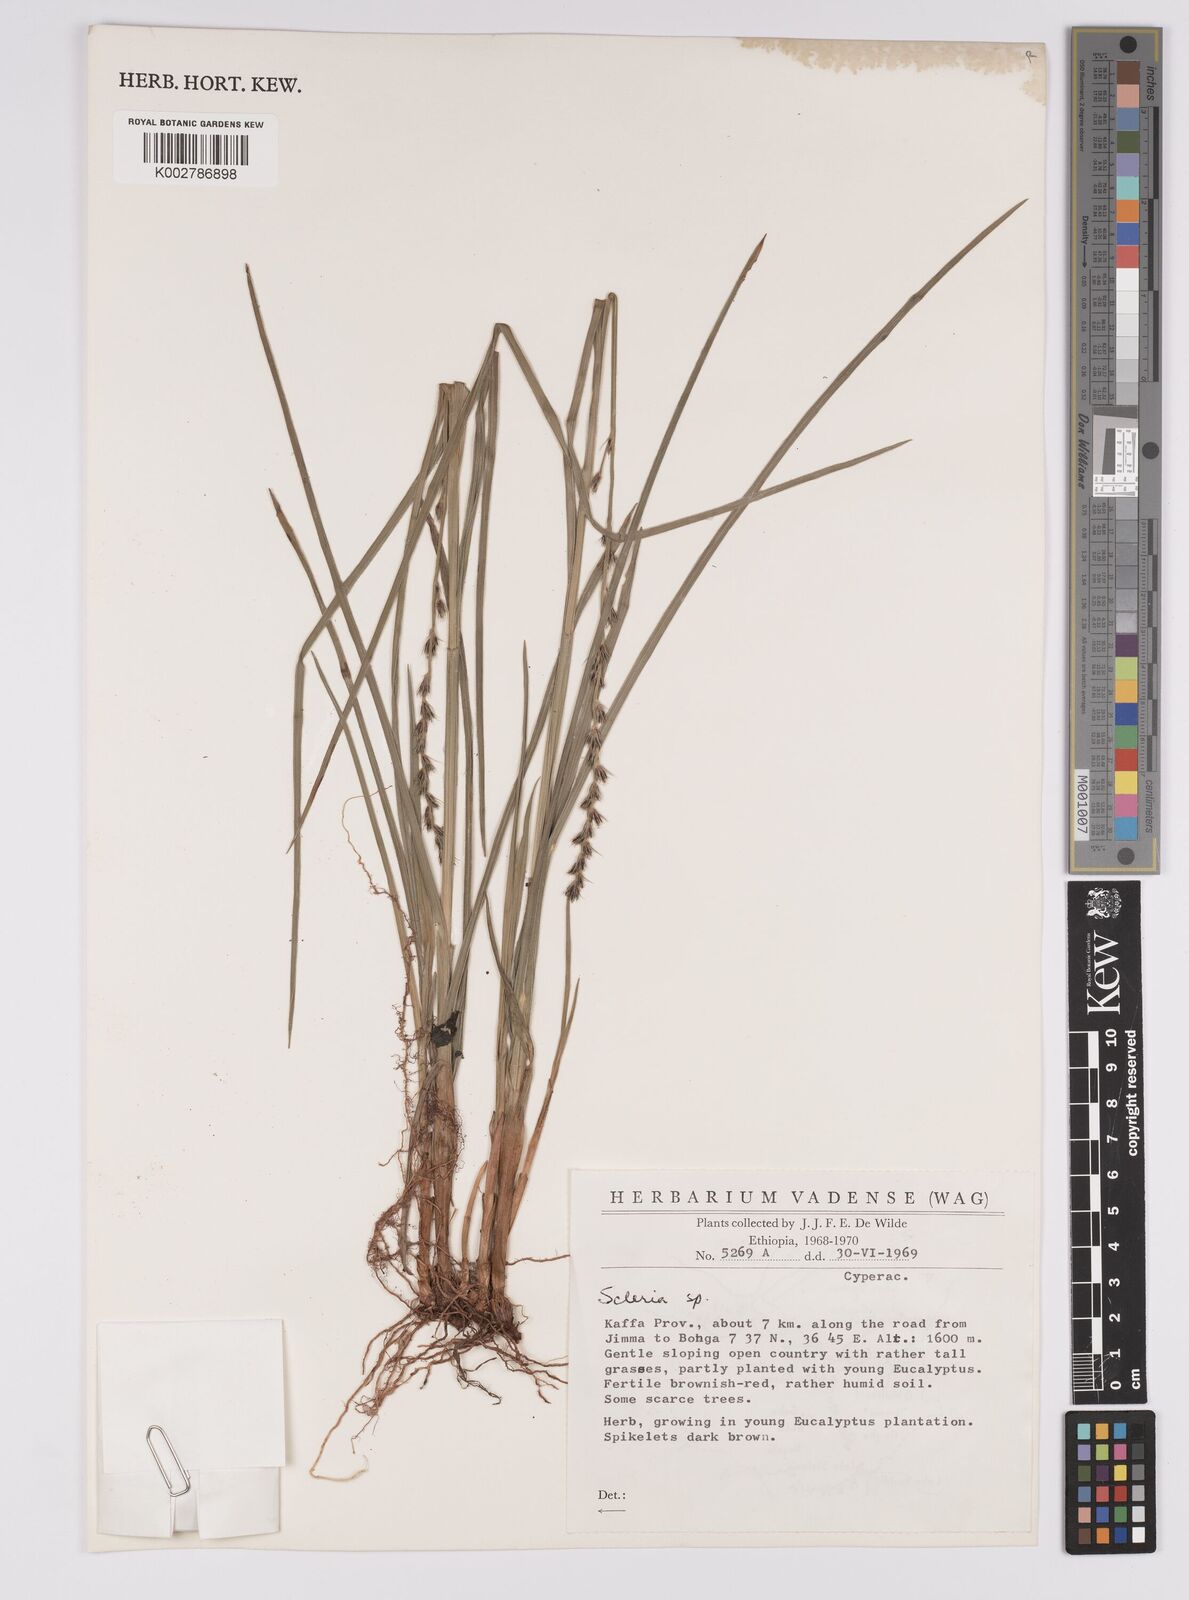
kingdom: Plantae
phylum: Tracheophyta
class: Liliopsida
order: Poales
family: Cyperaceae
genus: Scleria
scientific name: Scleria
